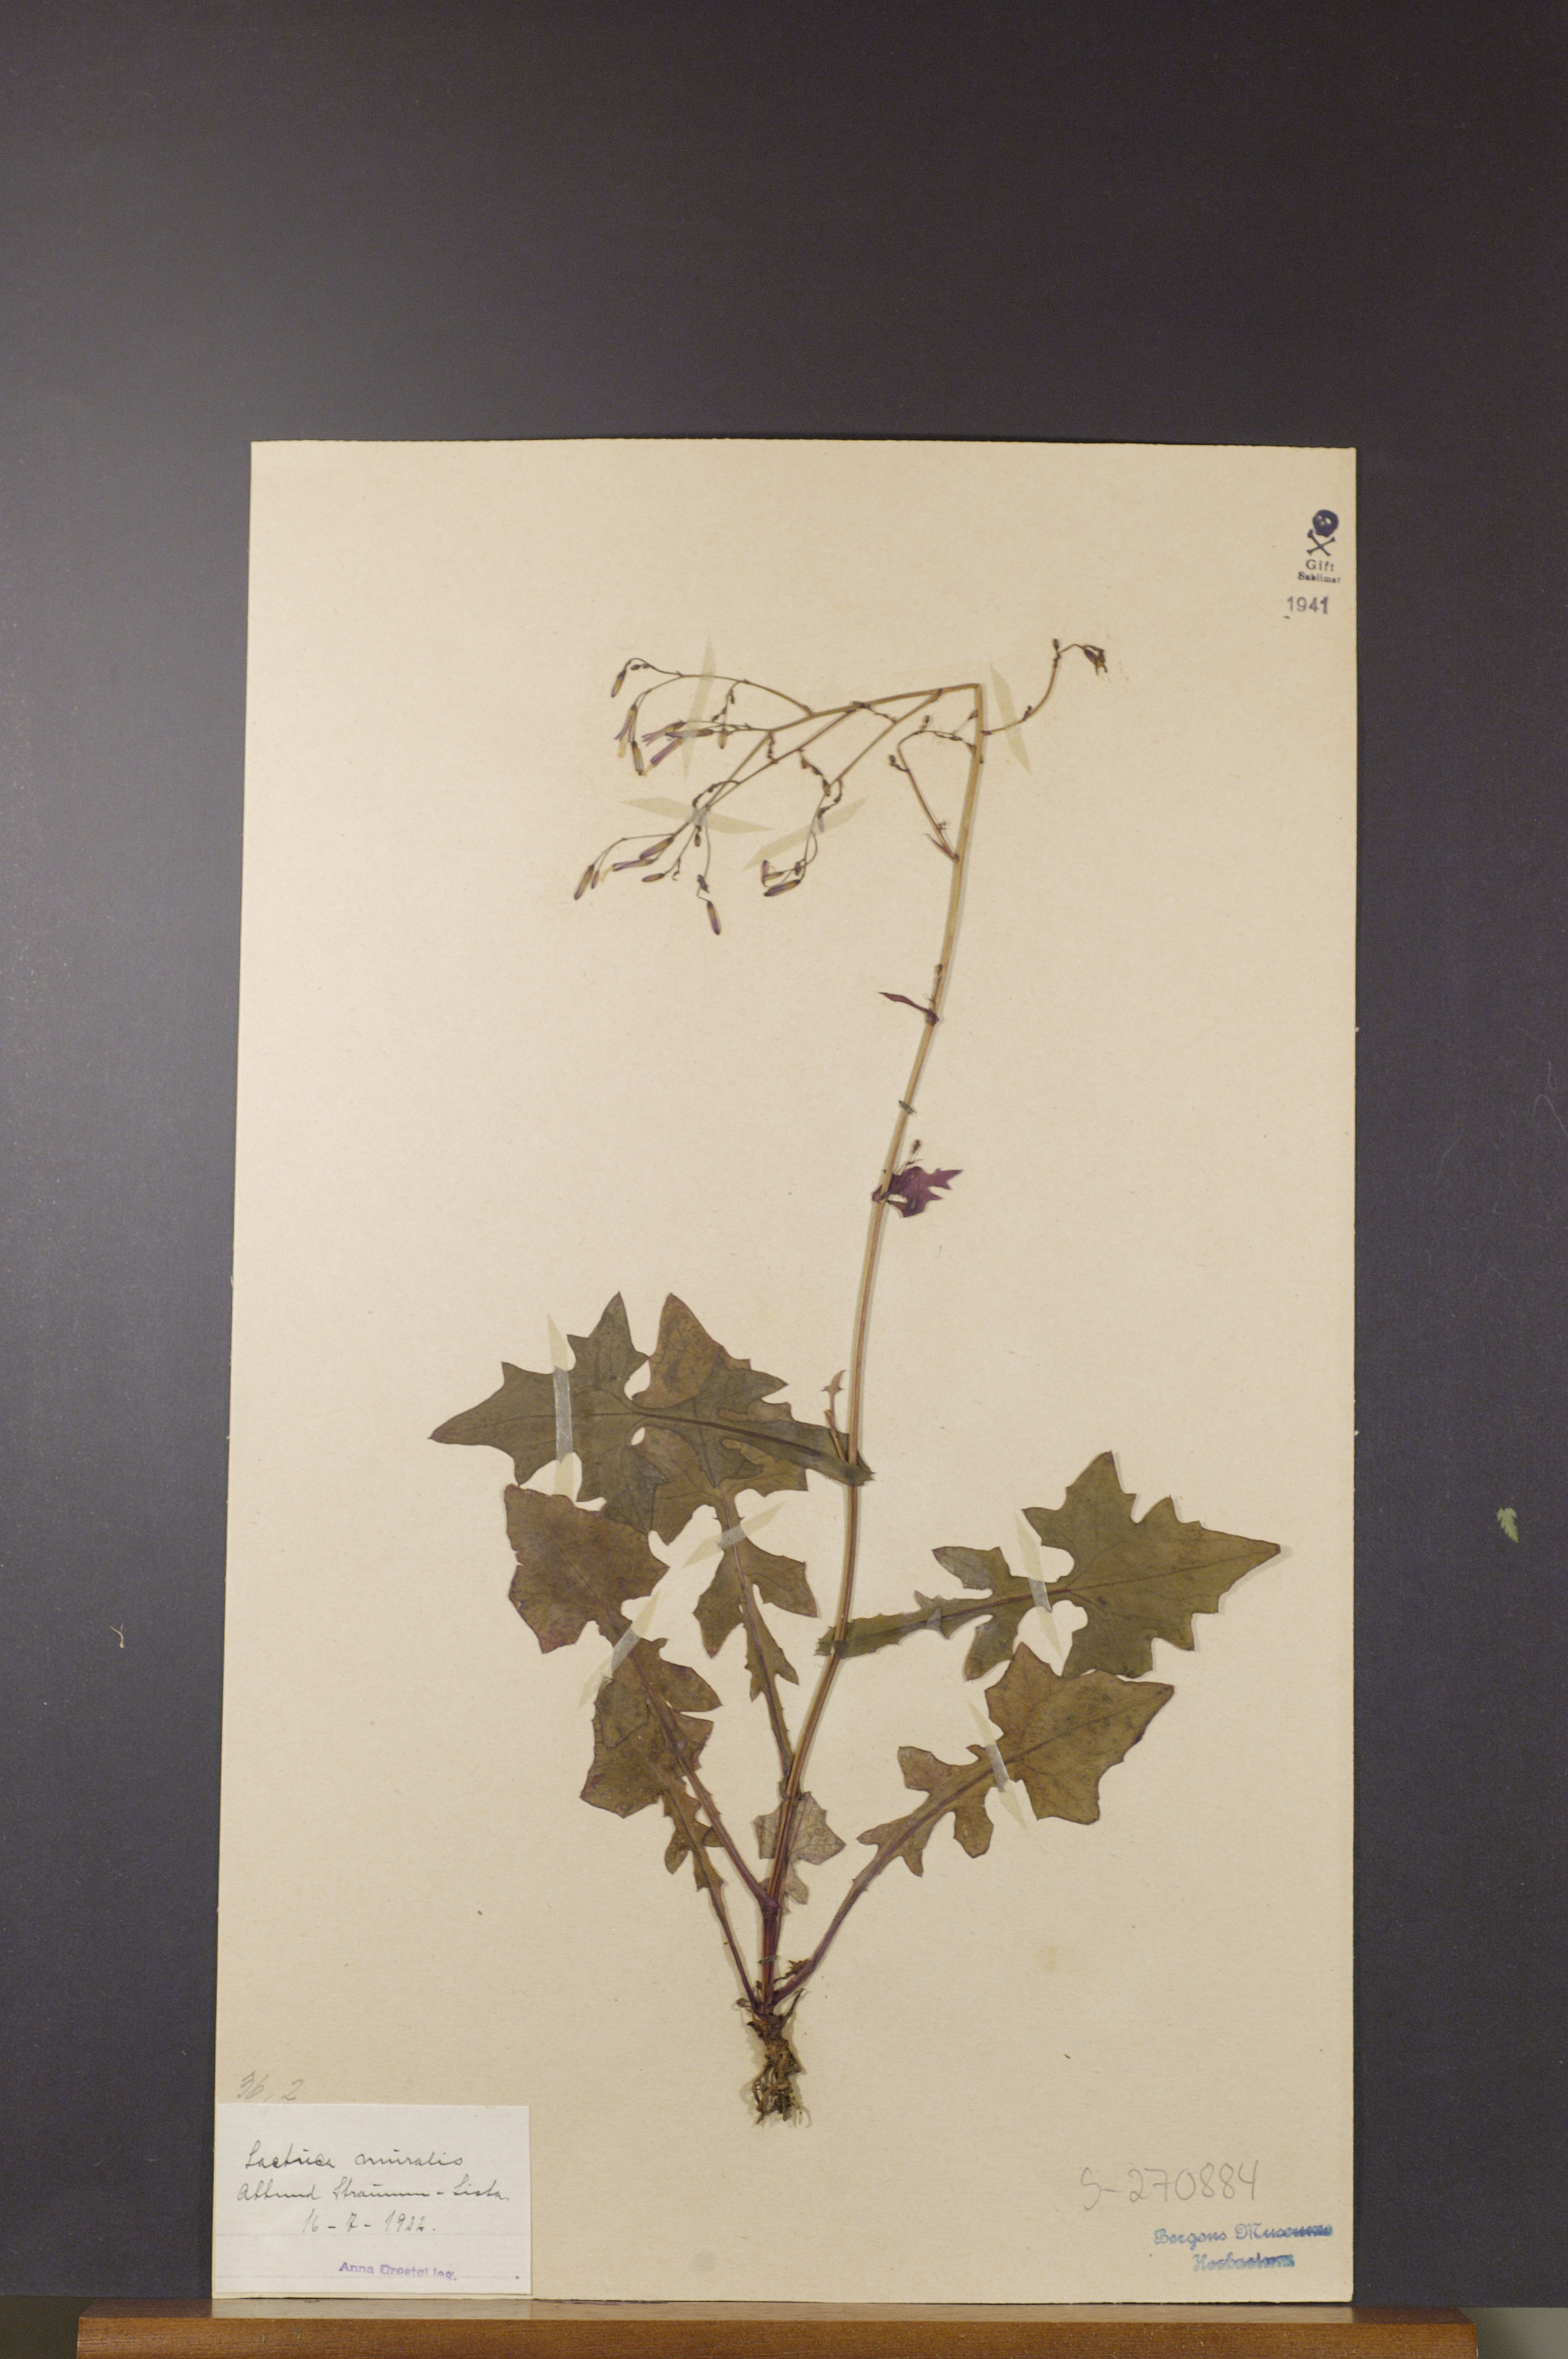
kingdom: Plantae
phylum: Tracheophyta
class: Magnoliopsida
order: Asterales
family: Asteraceae
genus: Mycelis
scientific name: Mycelis muralis
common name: Wall lettuce
